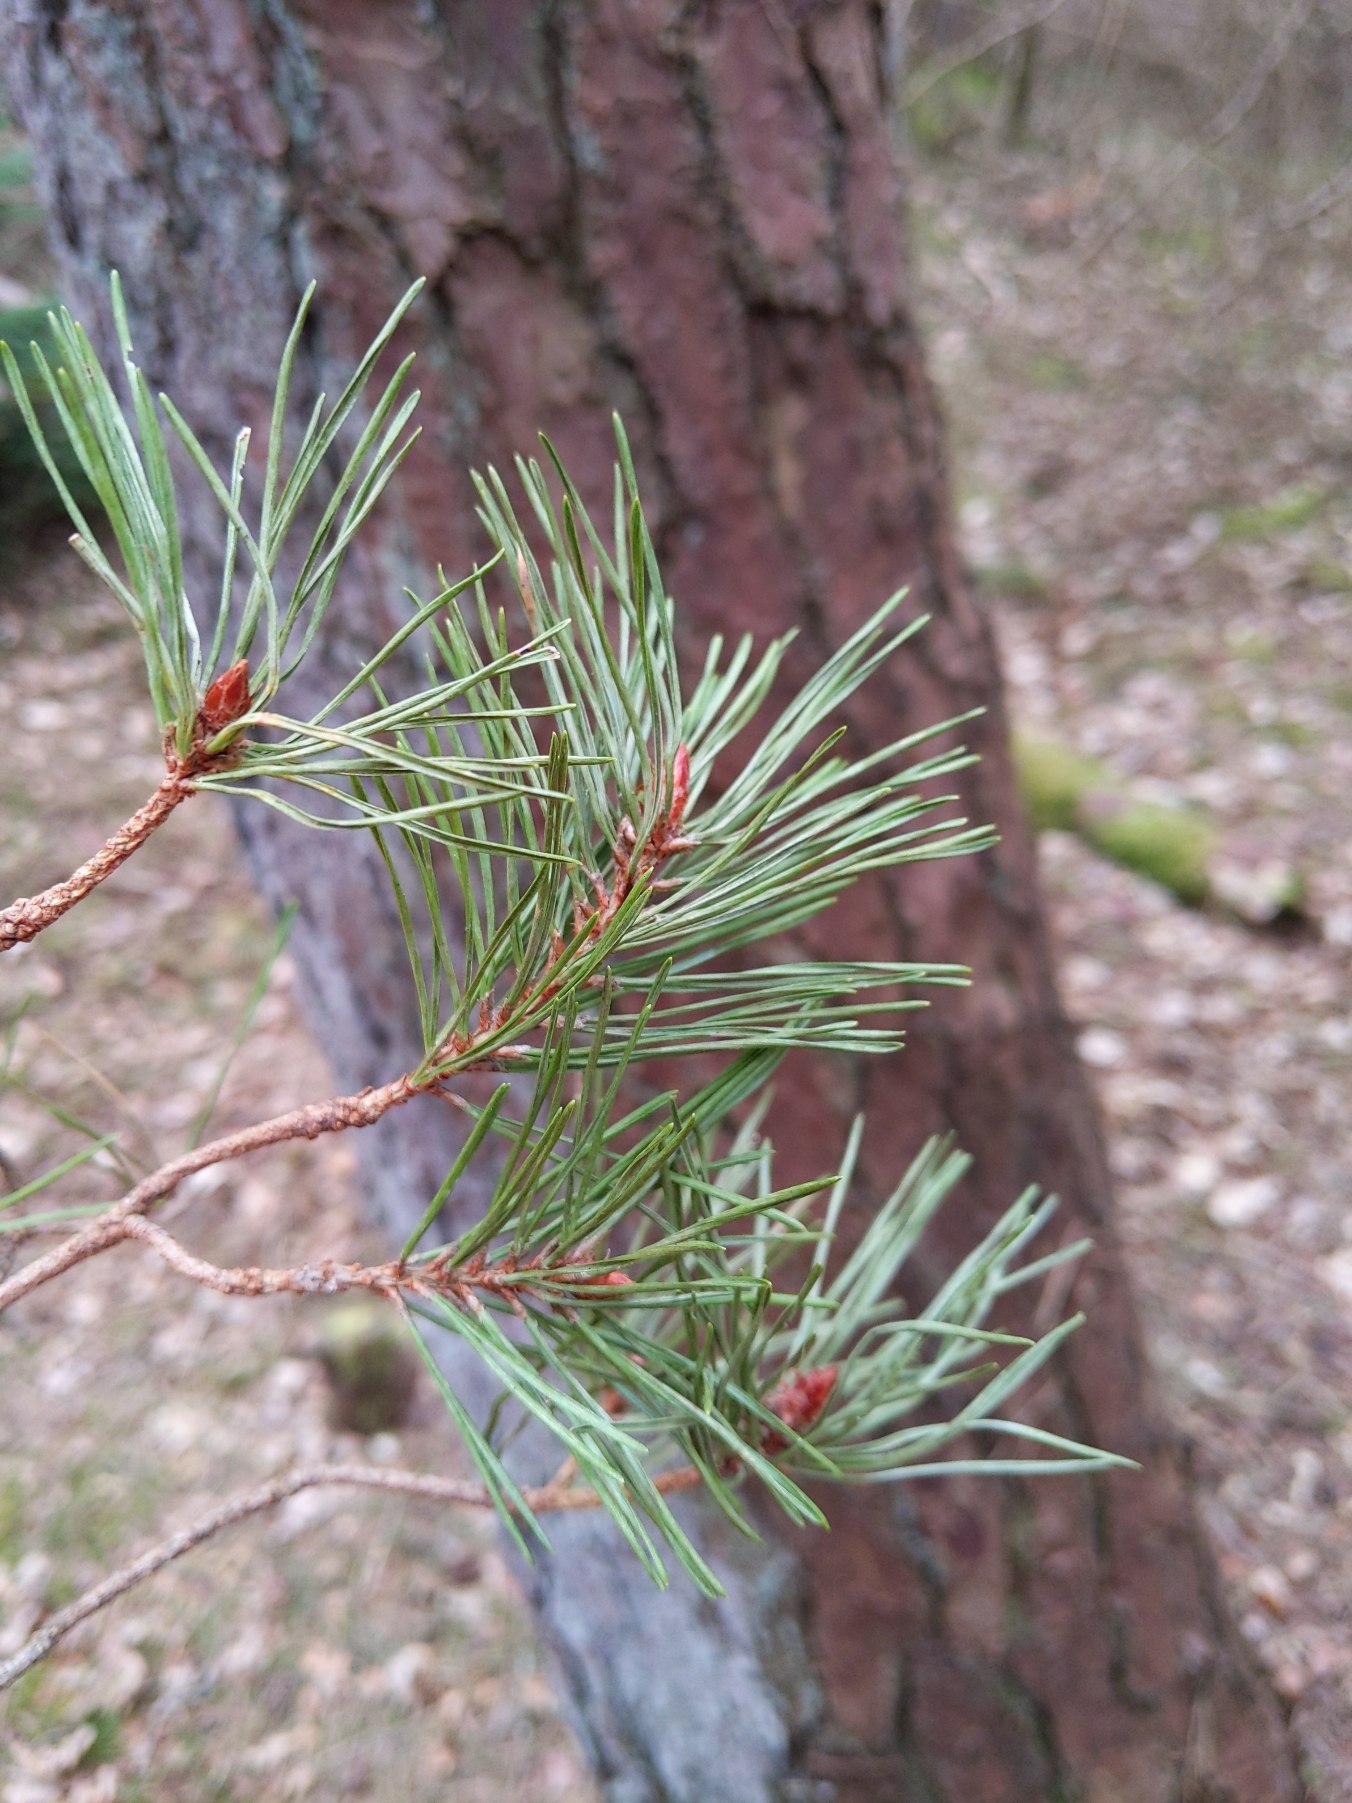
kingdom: Plantae
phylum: Tracheophyta
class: Pinopsida
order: Pinales
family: Pinaceae
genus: Pinus
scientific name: Pinus sylvestris
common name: Skov-fyr
